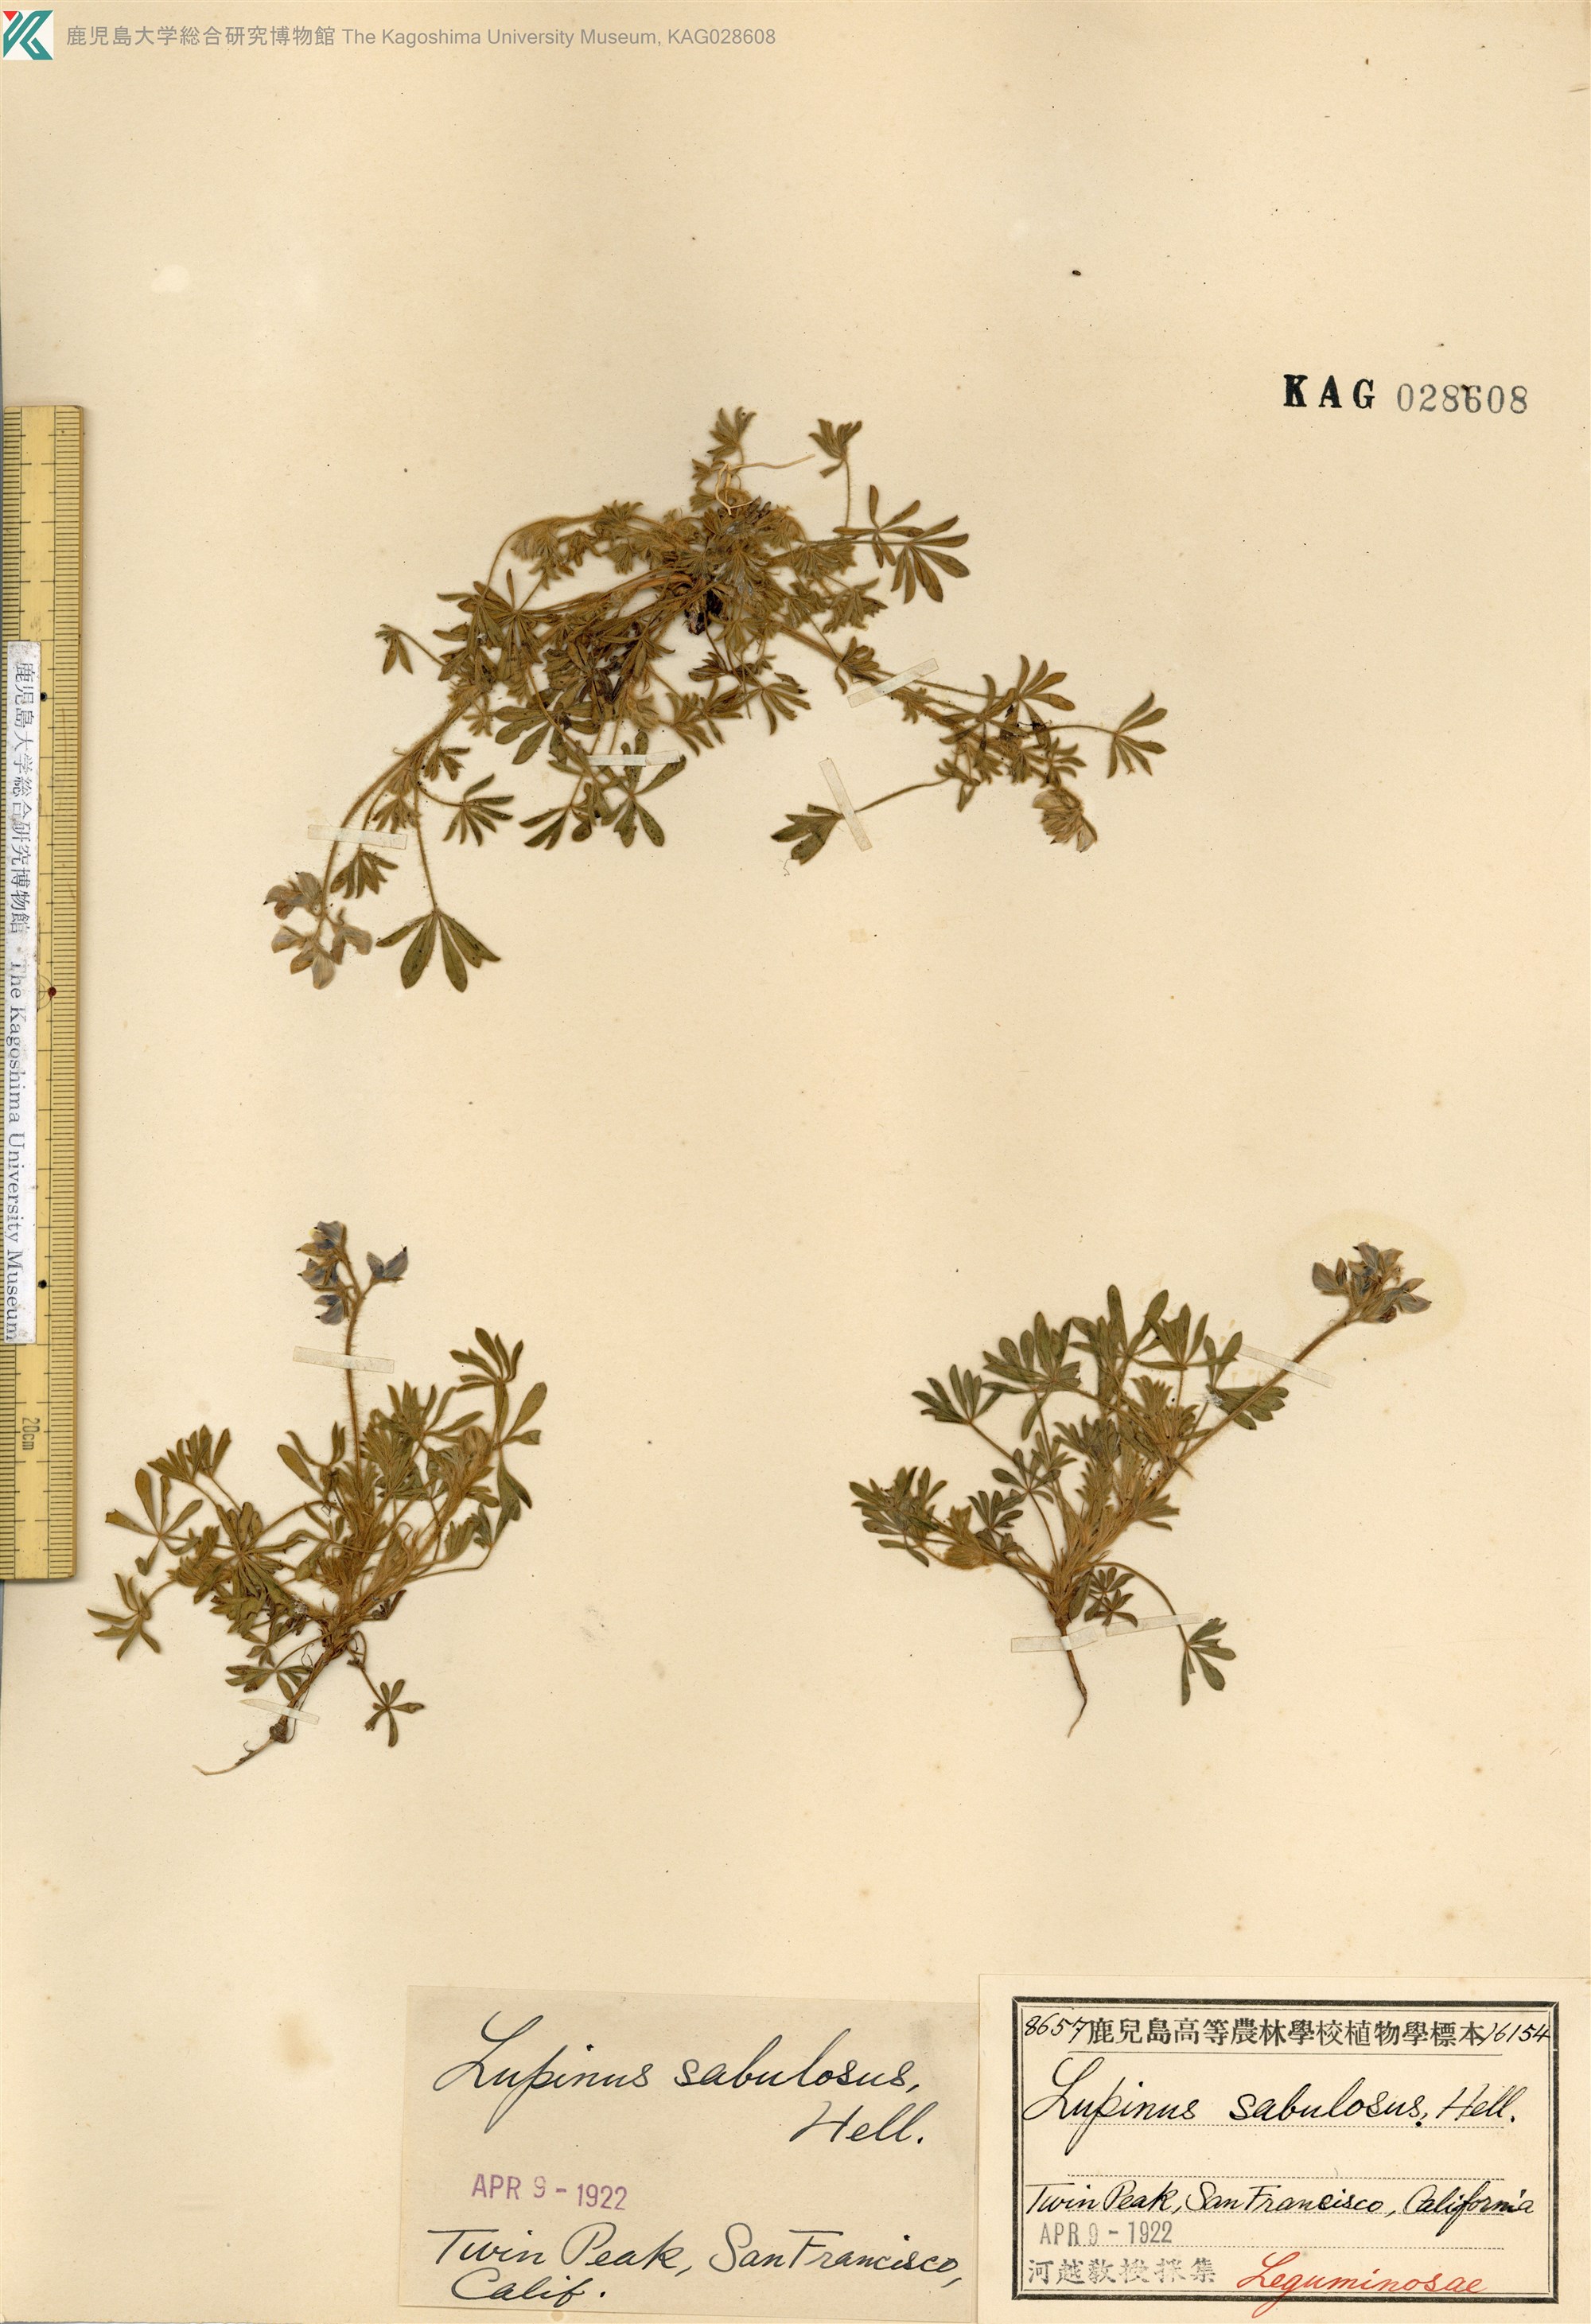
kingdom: Plantae
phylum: Tracheophyta
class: Magnoliopsida
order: Fabales
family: Fabaceae
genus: Lupinus
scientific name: Lupinus bicolor
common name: Miniature lupine
